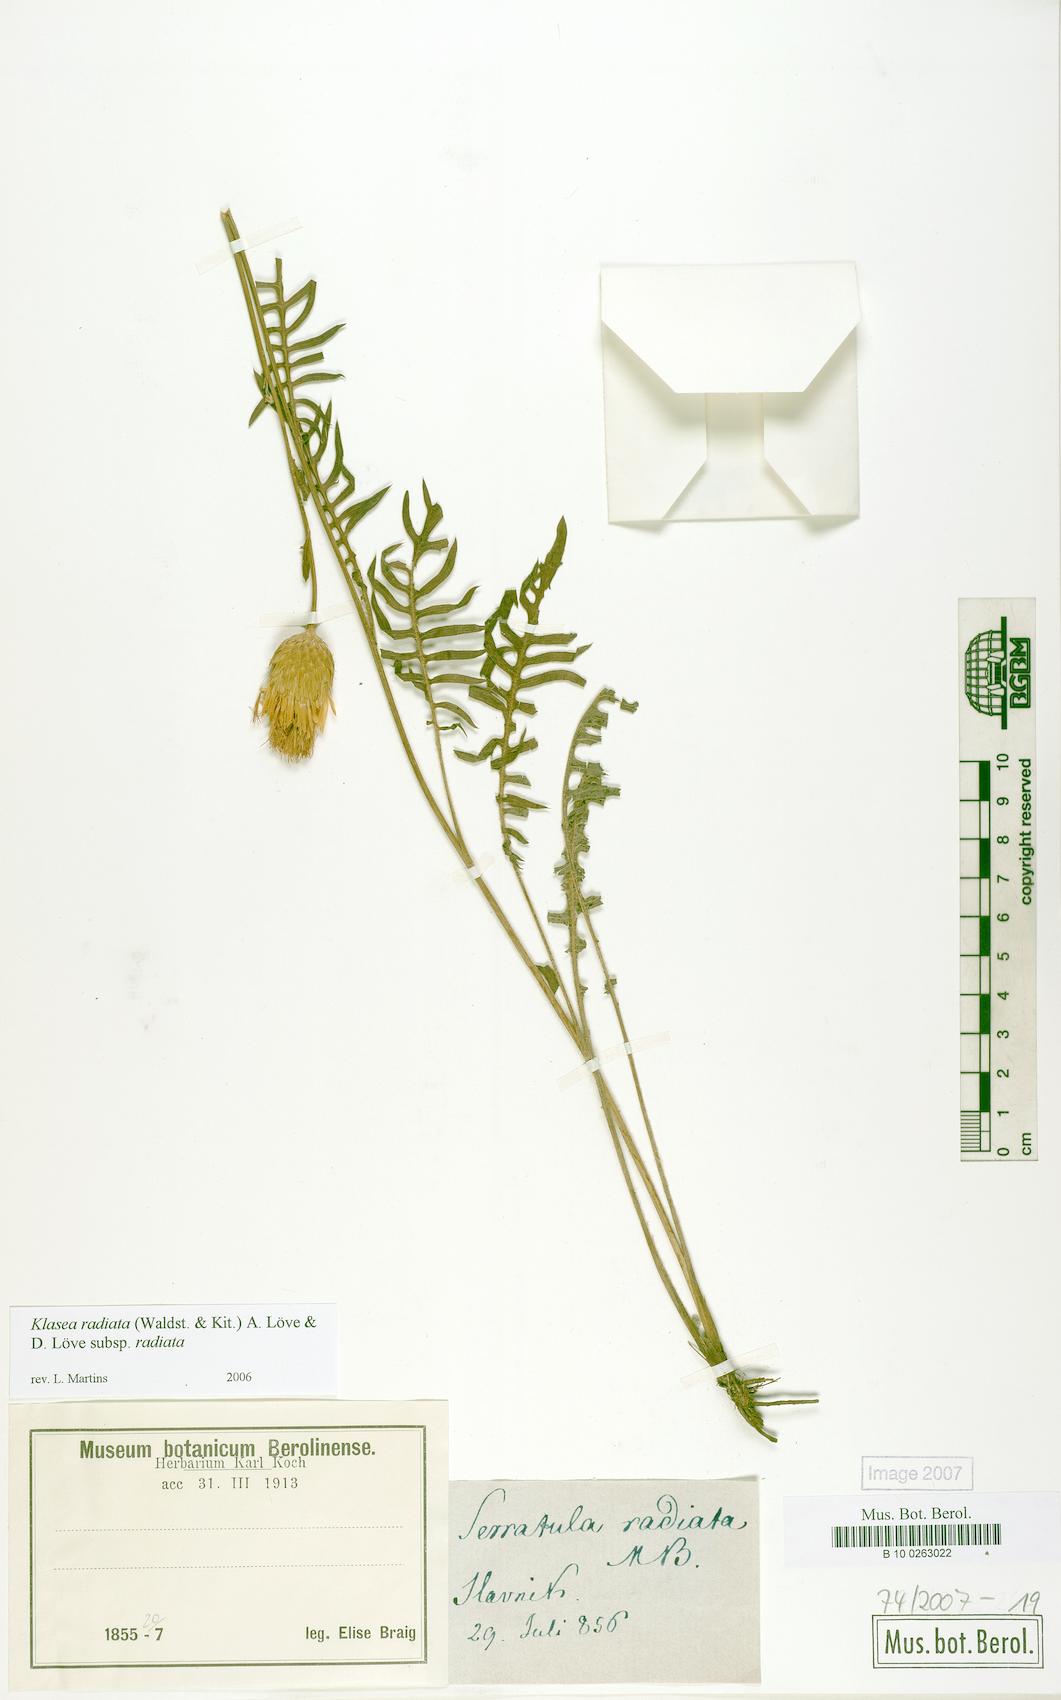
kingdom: Plantae
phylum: Tracheophyta
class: Magnoliopsida
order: Asterales
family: Asteraceae
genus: Klasea
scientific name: Klasea radiata
